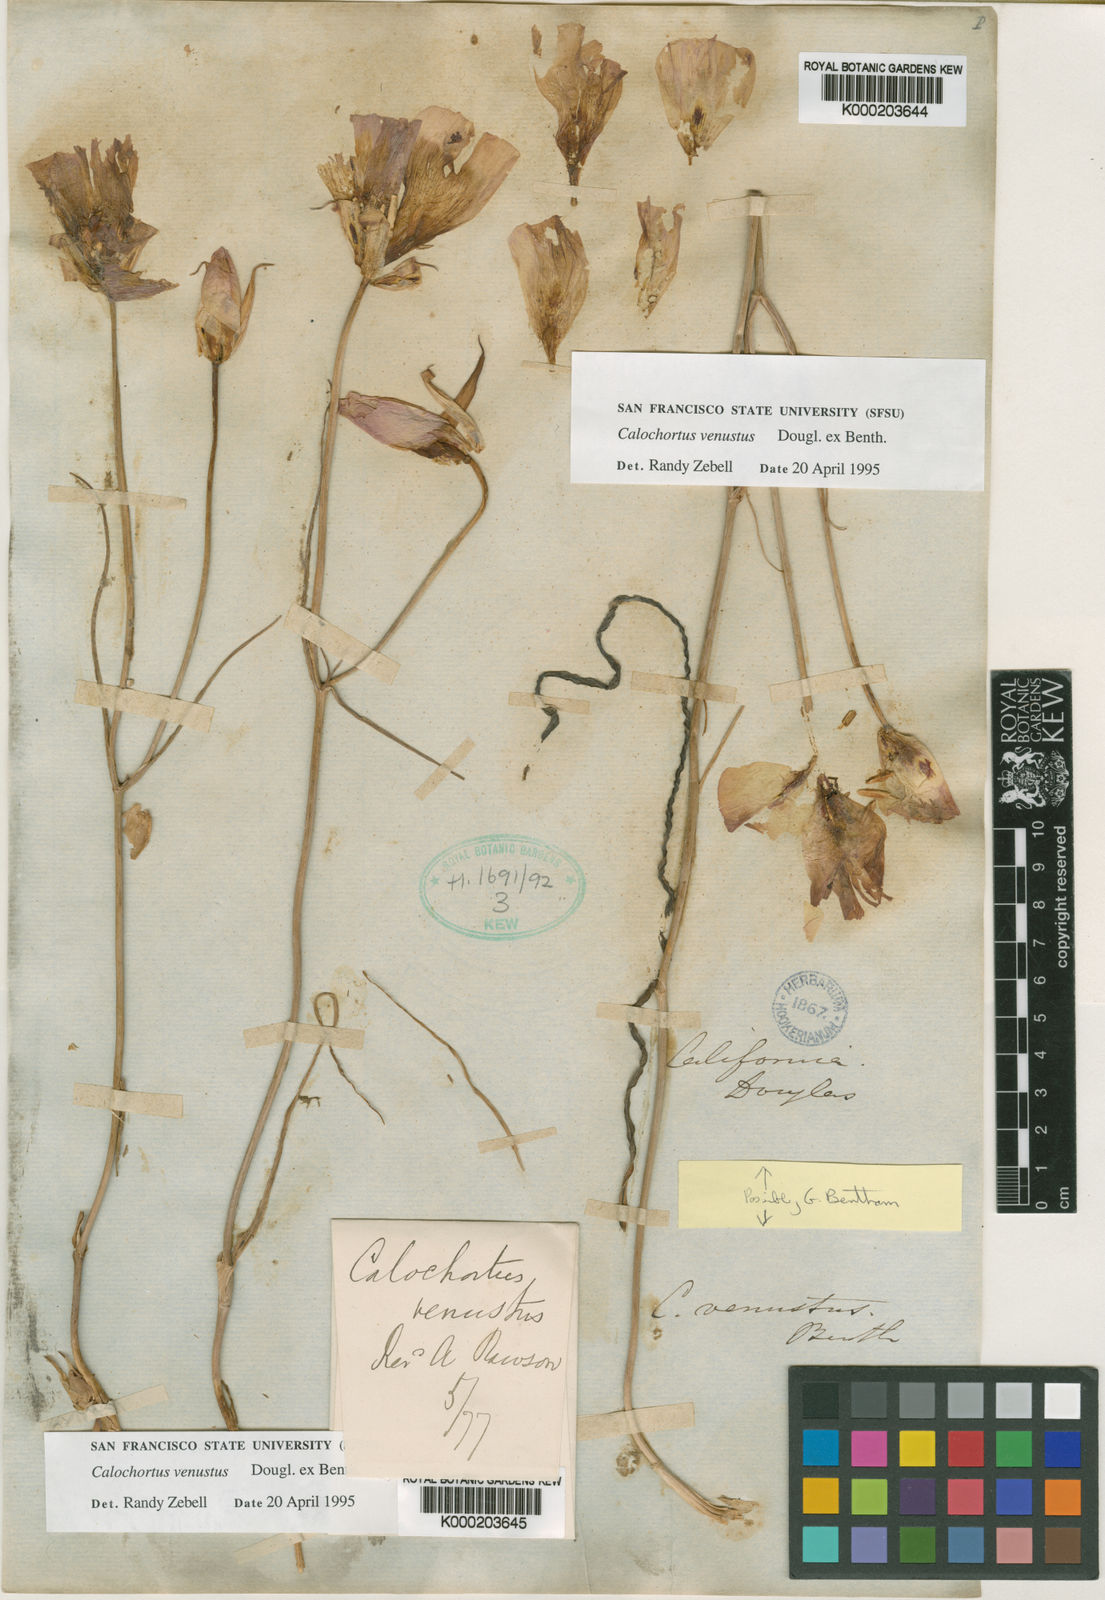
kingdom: Plantae
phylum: Tracheophyta
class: Liliopsida
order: Liliales
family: Liliaceae
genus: Calochortus
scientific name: Calochortus venustus
